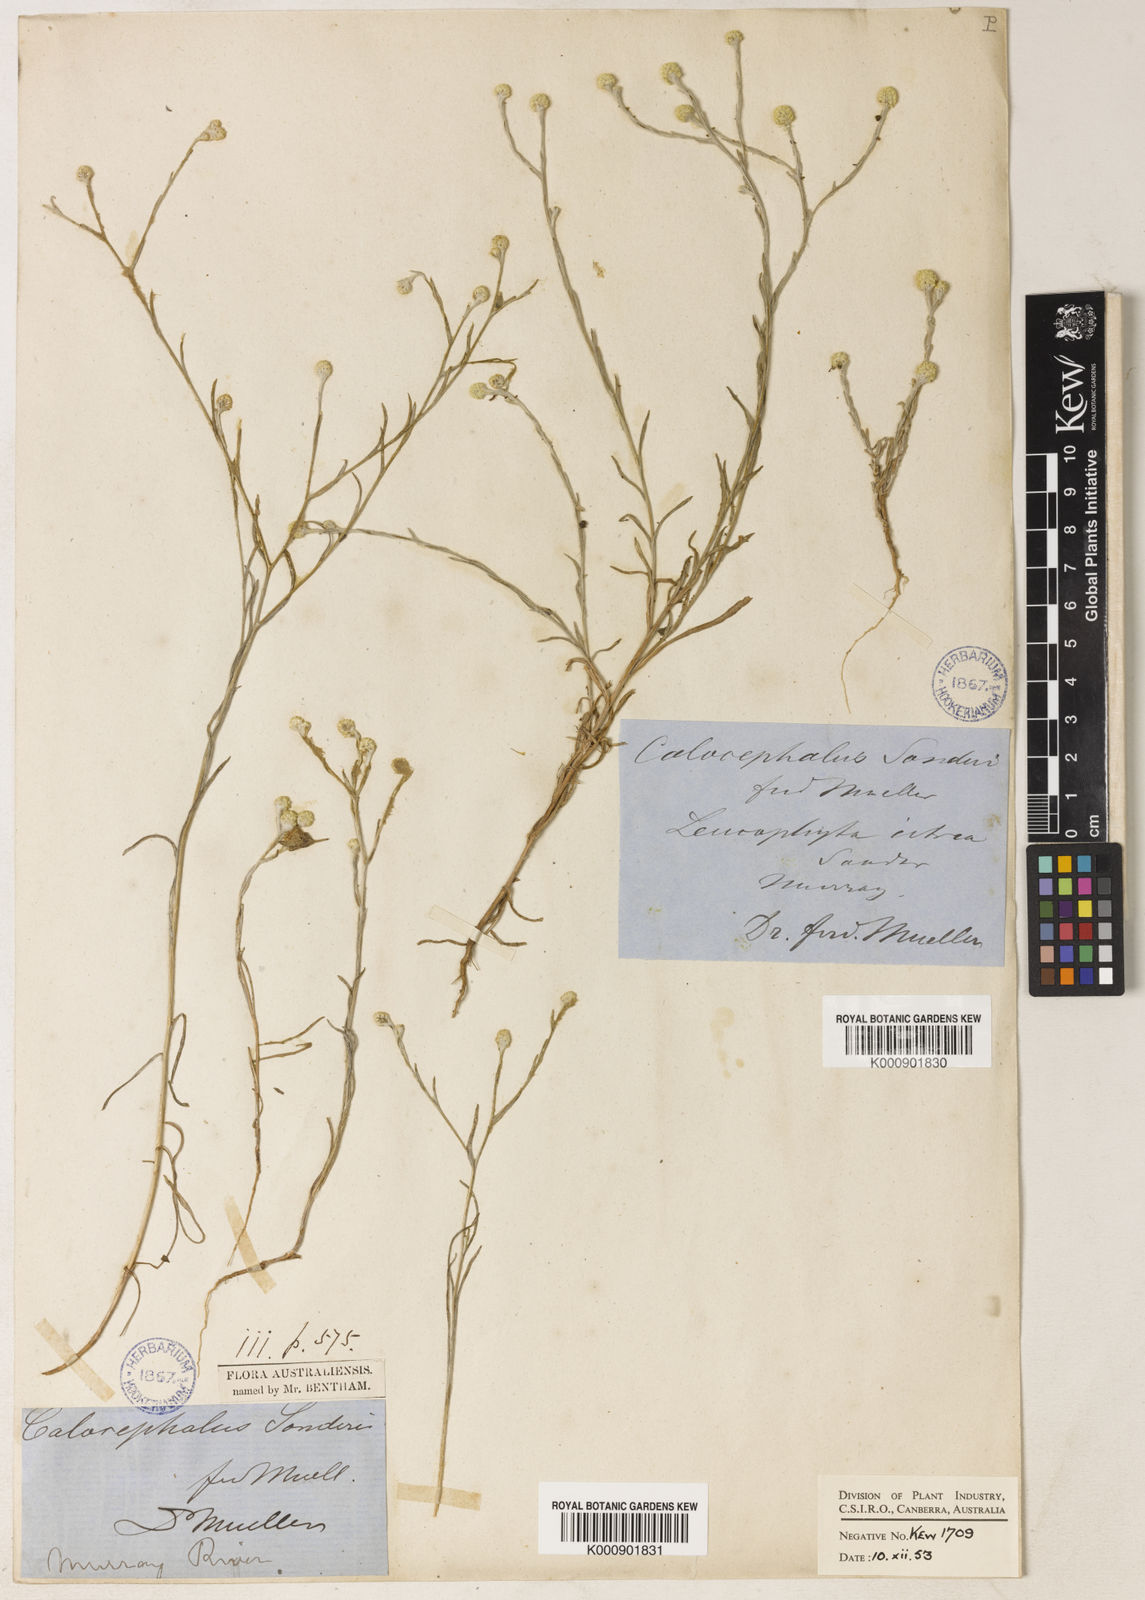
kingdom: Plantae
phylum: Tracheophyta
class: Magnoliopsida
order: Asterales
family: Asteraceae
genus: Calocephalus
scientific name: Calocephalus sonderi
